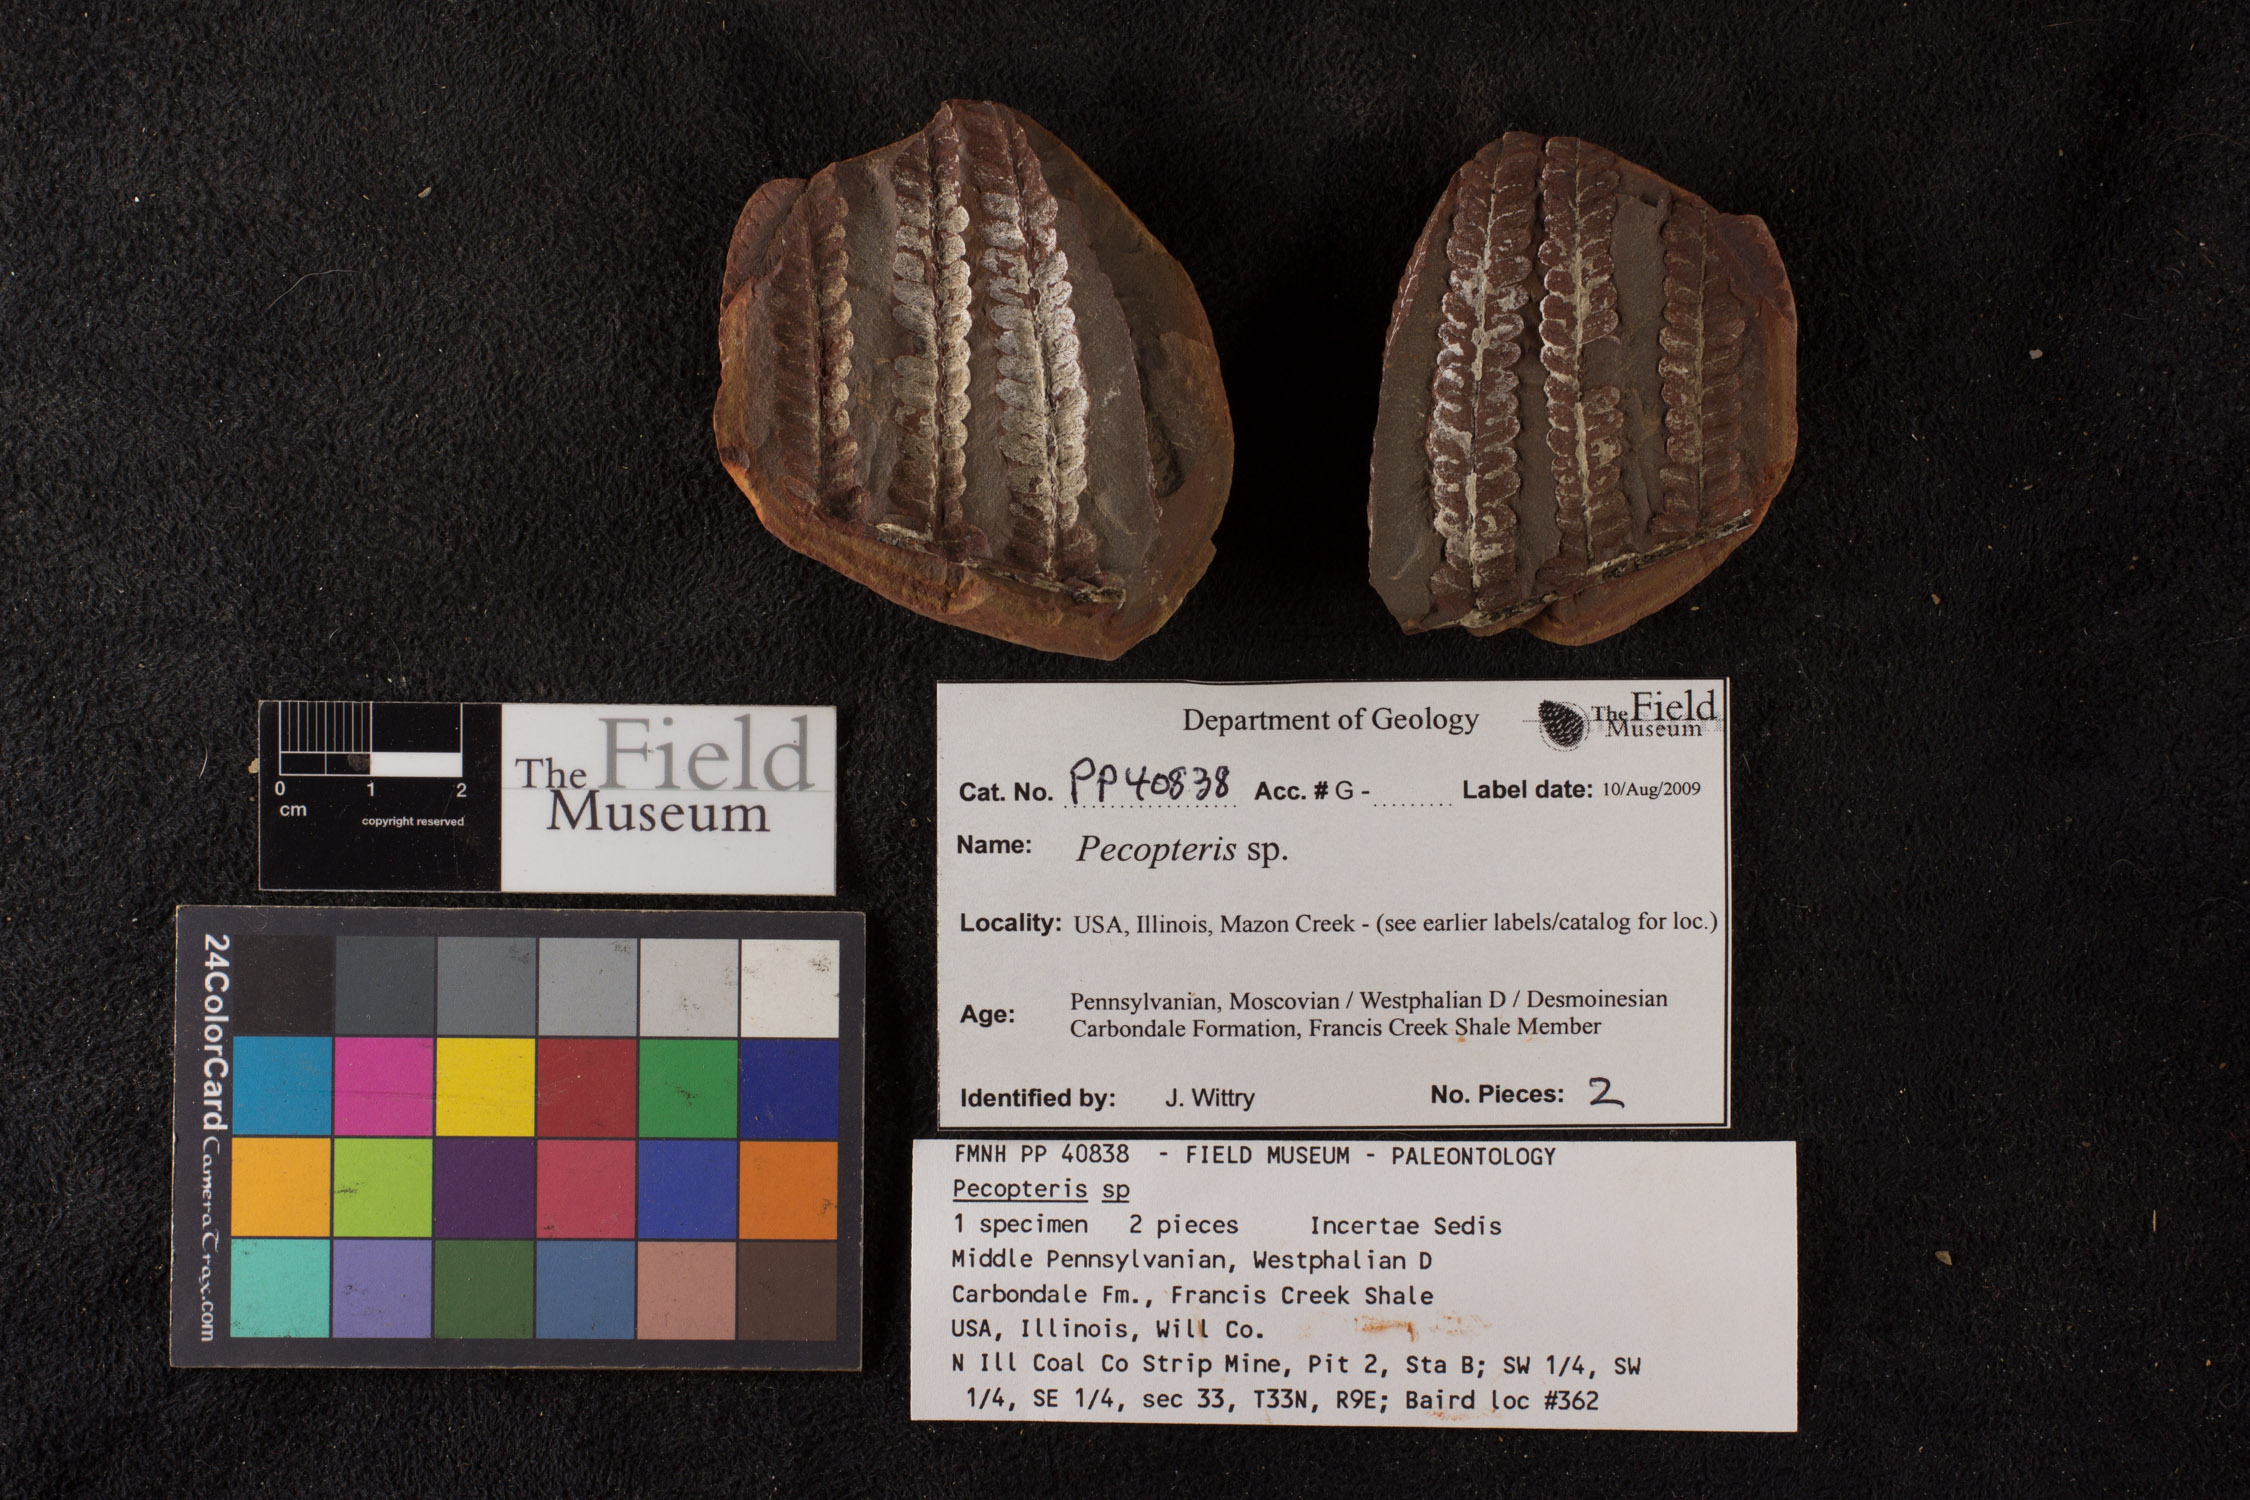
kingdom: Plantae
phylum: Tracheophyta
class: Polypodiopsida
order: Marattiales
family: Asterothecaceae
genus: Pecopteris
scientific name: Pecopteris
